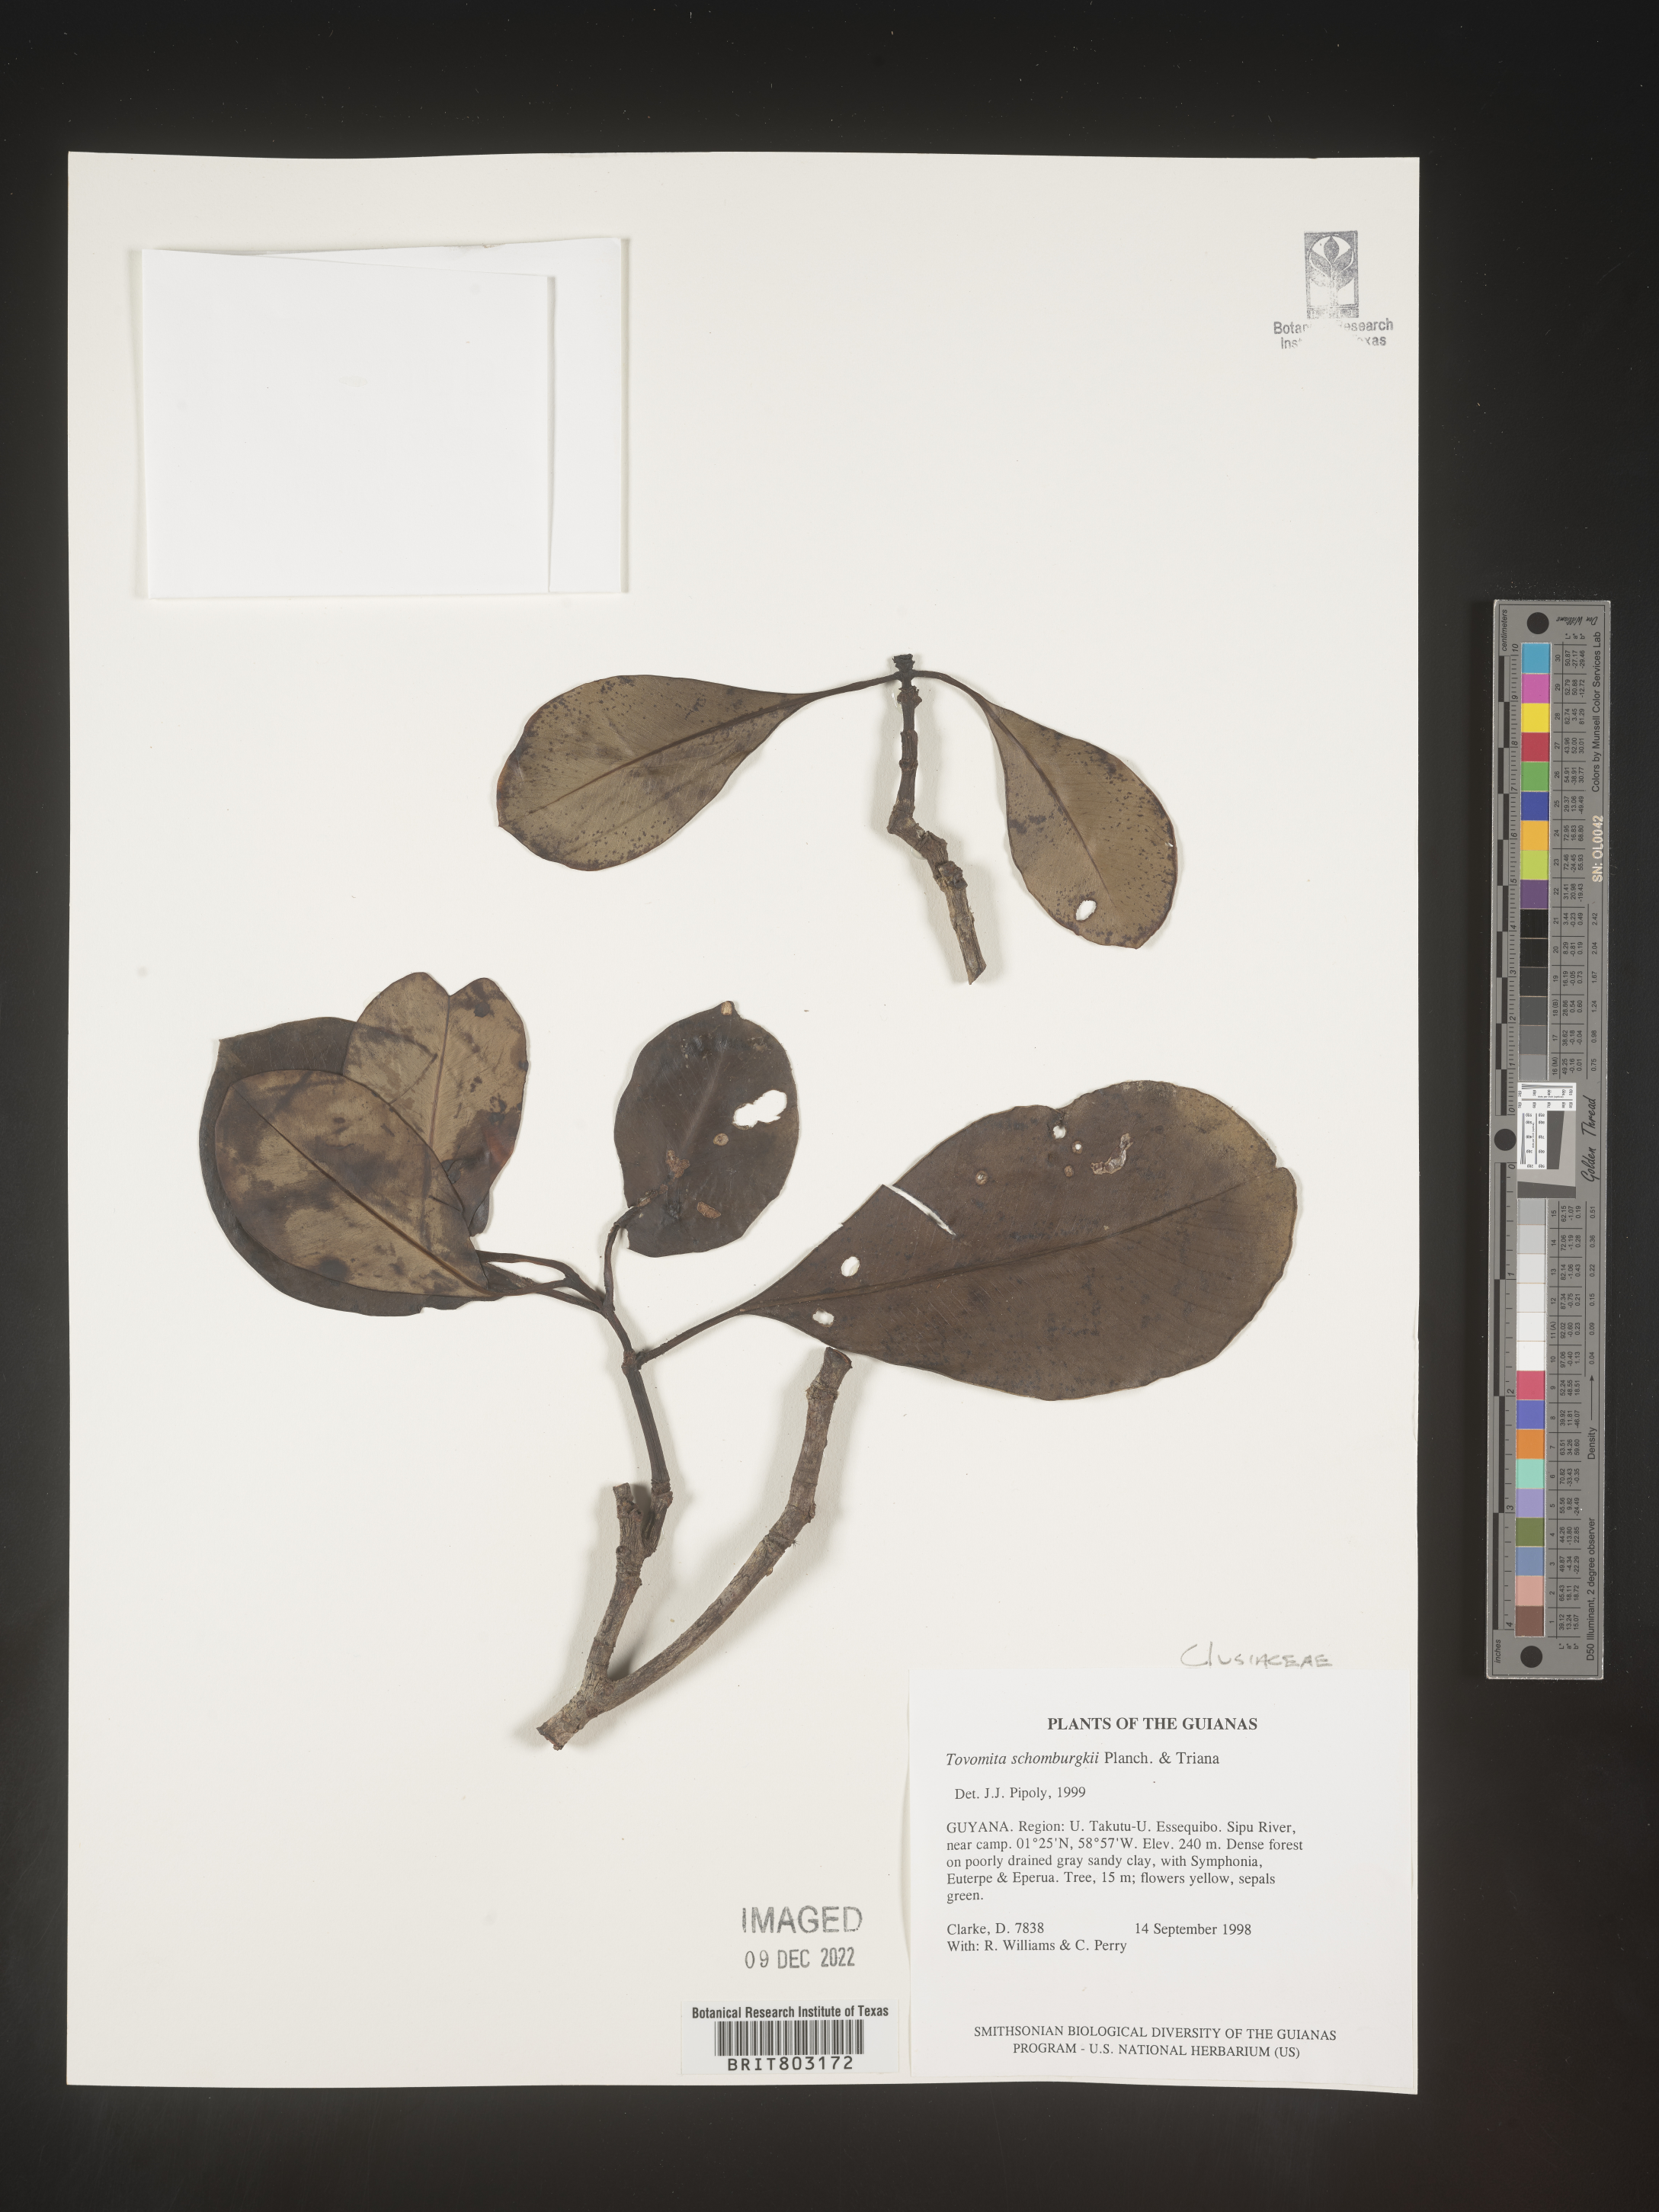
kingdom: Plantae
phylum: Tracheophyta
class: Magnoliopsida
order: Malpighiales
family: Clusiaceae
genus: Tovomita
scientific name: Tovomita
